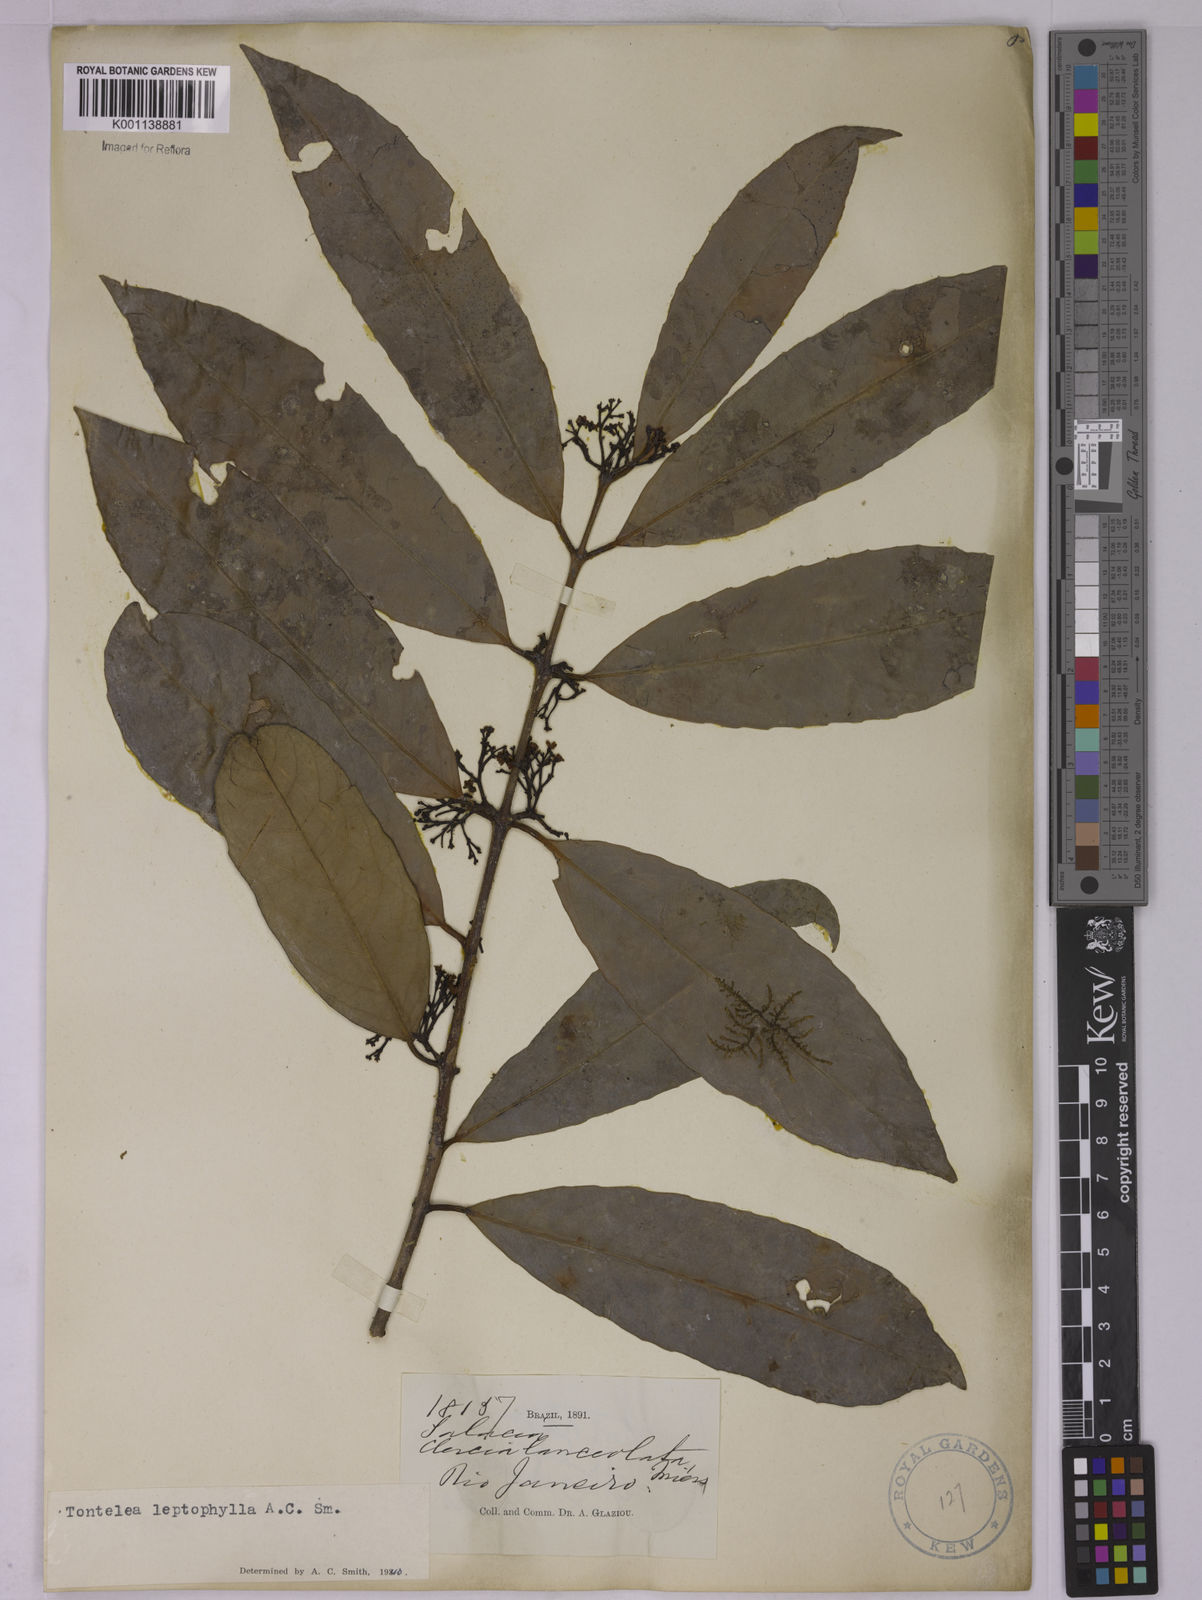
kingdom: Plantae
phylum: Tracheophyta
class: Magnoliopsida
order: Celastrales
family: Celastraceae
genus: Tontelea
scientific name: Tontelea leptophylla
